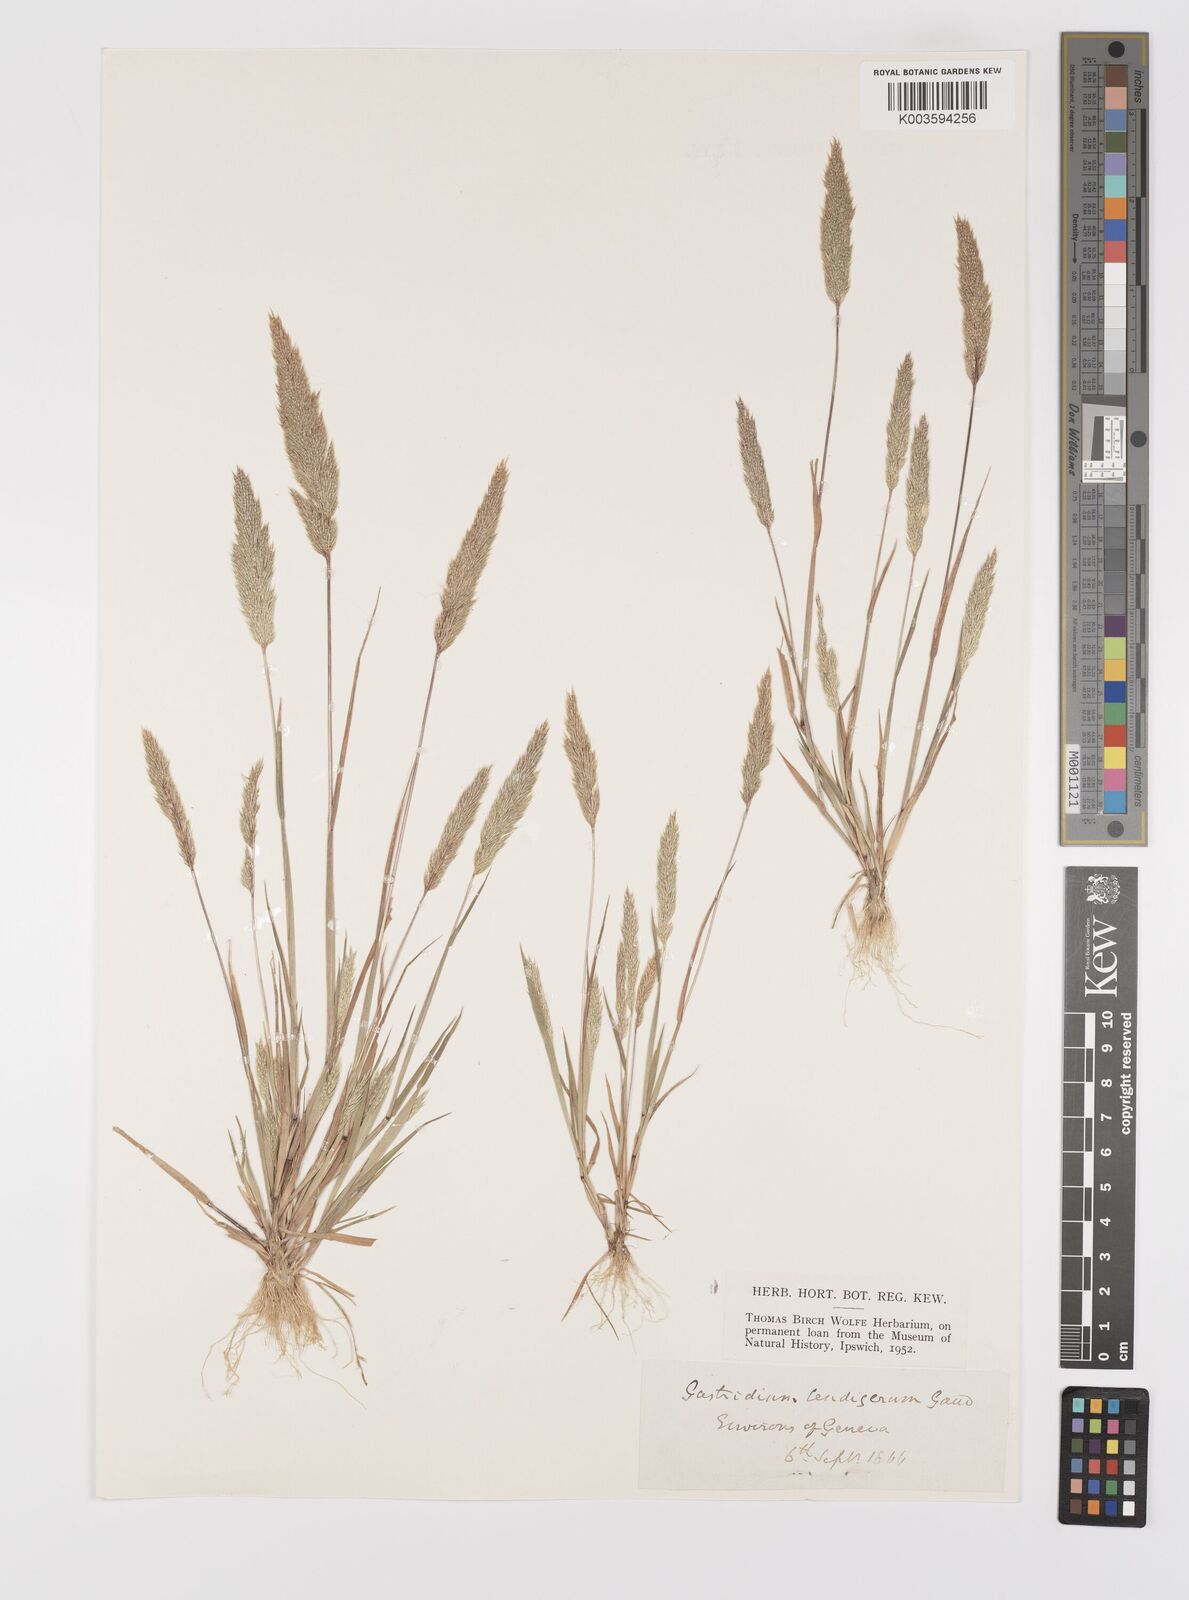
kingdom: Plantae
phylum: Tracheophyta
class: Liliopsida
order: Poales
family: Poaceae
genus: Gastridium
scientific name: Gastridium ventricosum
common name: Nit-grass
